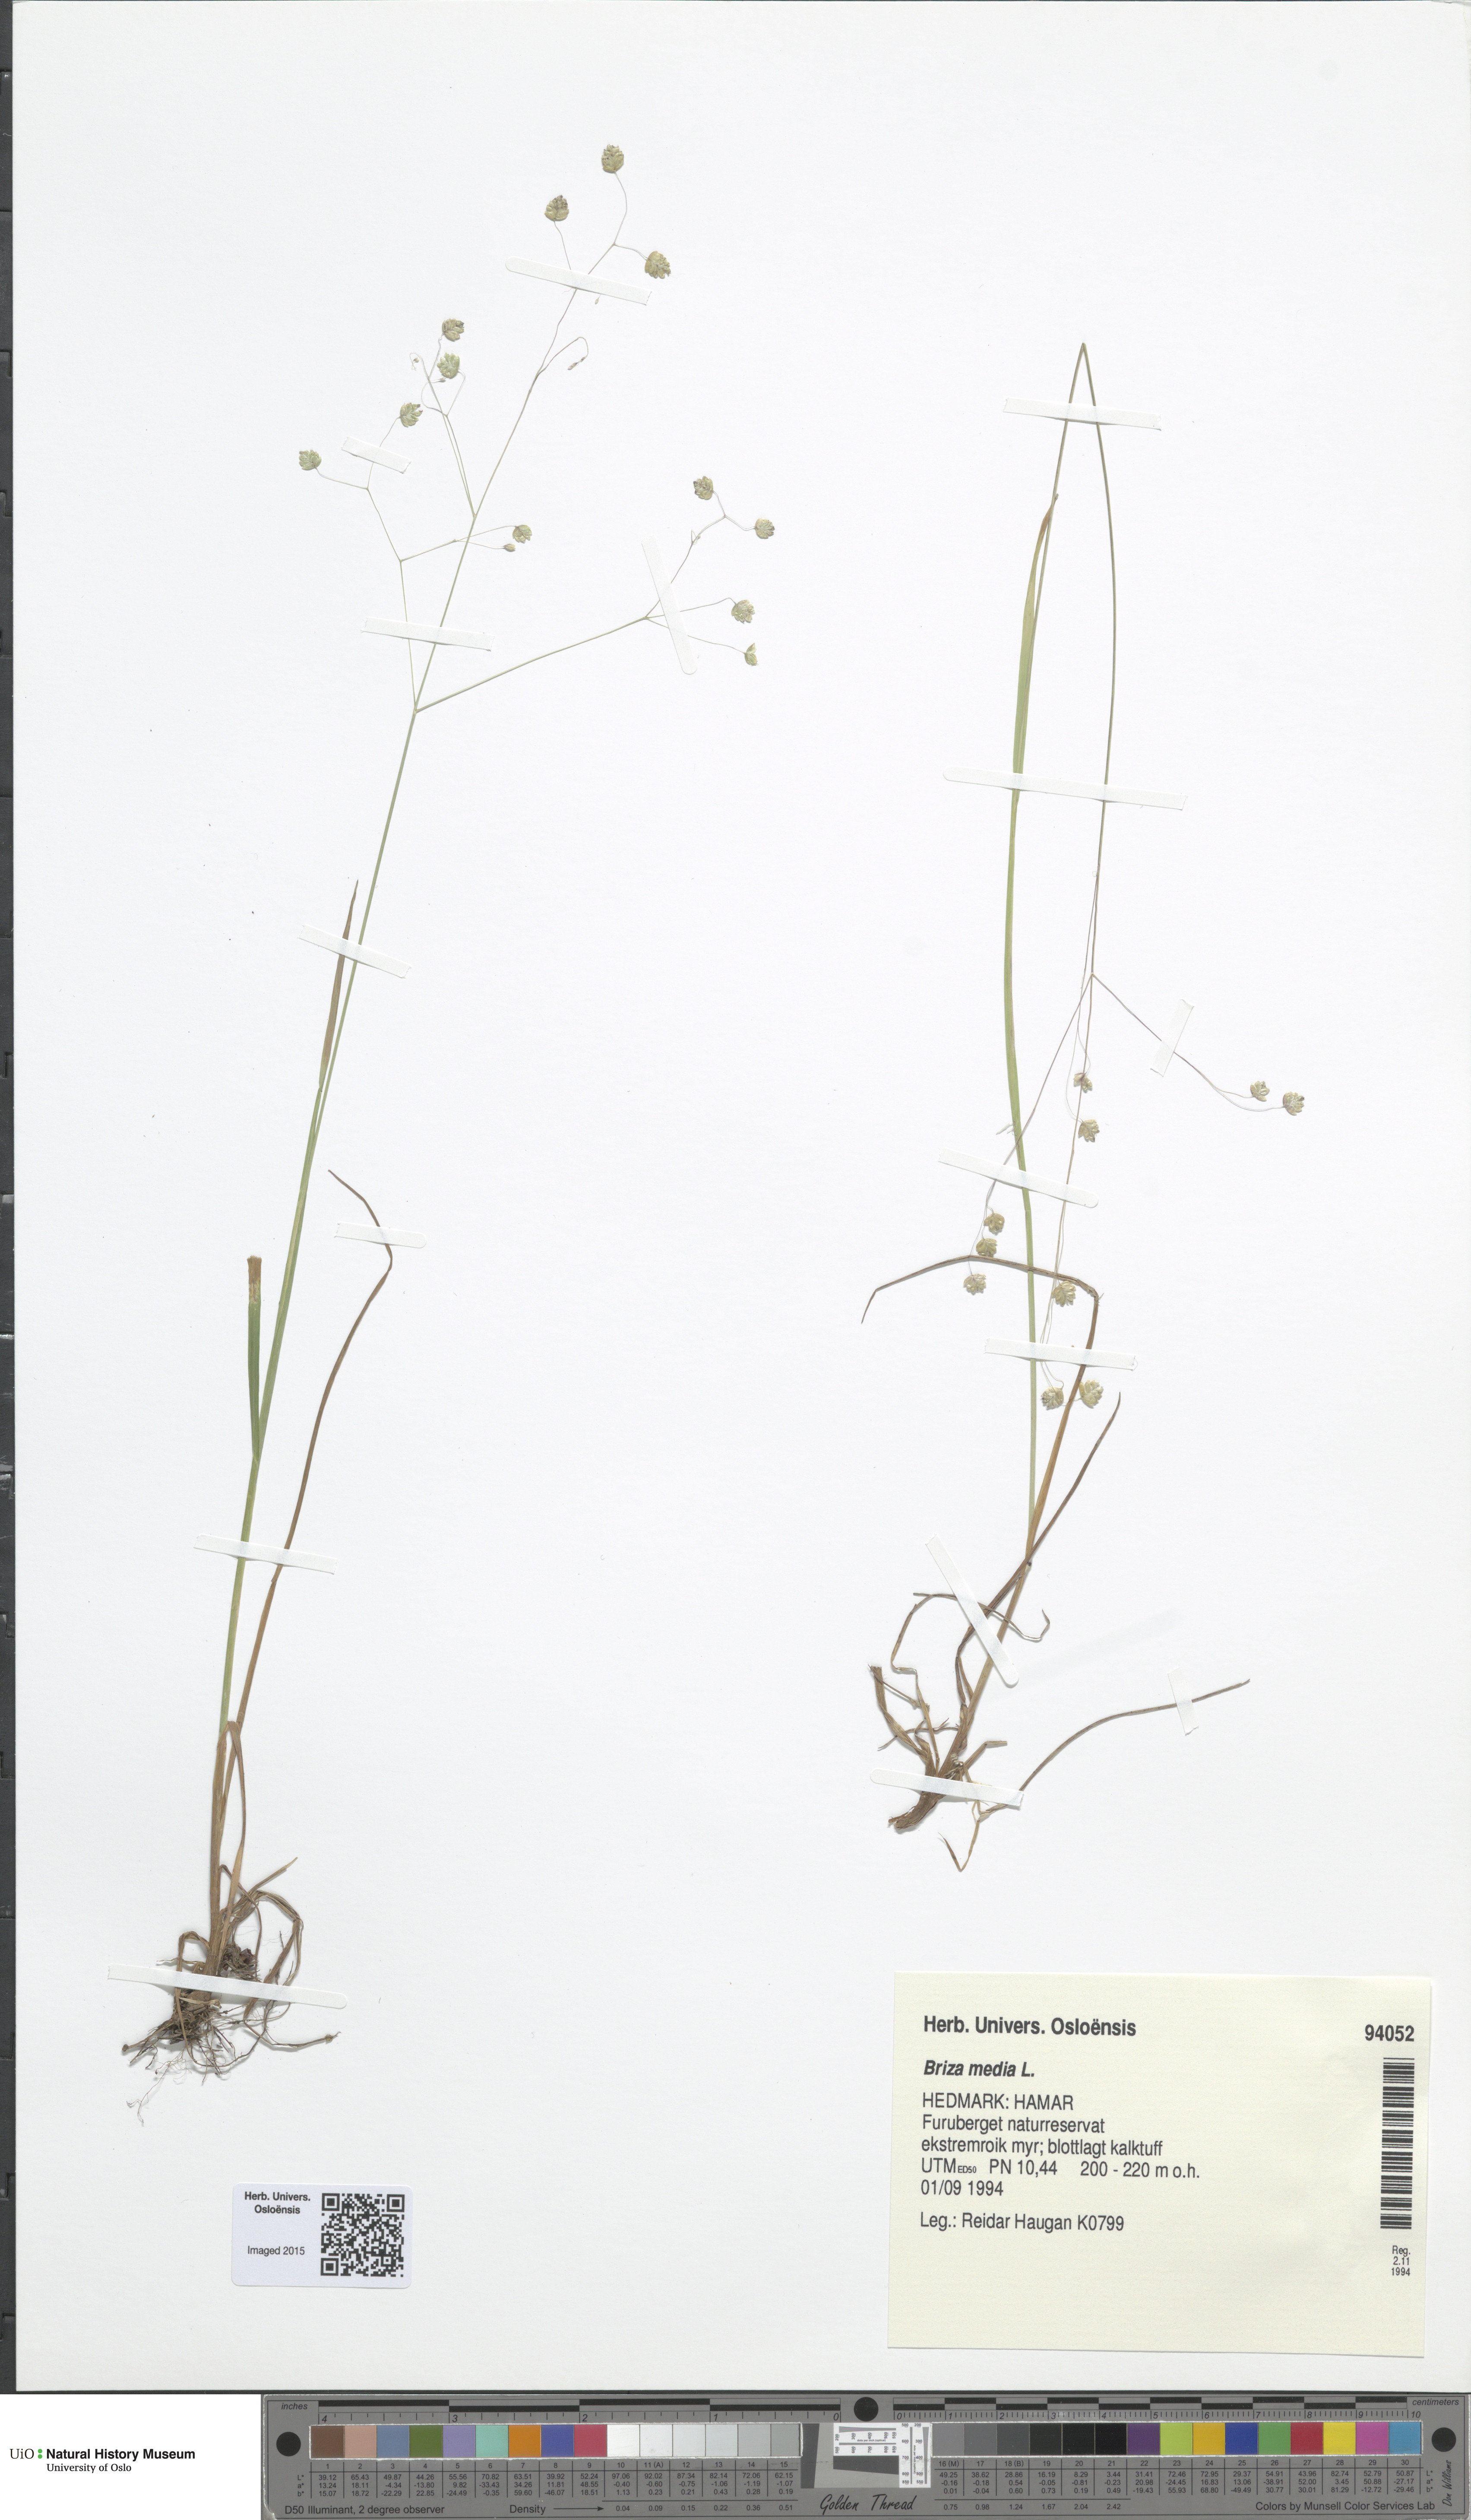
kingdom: Plantae
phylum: Tracheophyta
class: Liliopsida
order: Poales
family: Poaceae
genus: Briza
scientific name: Briza media
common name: Quaking grass
